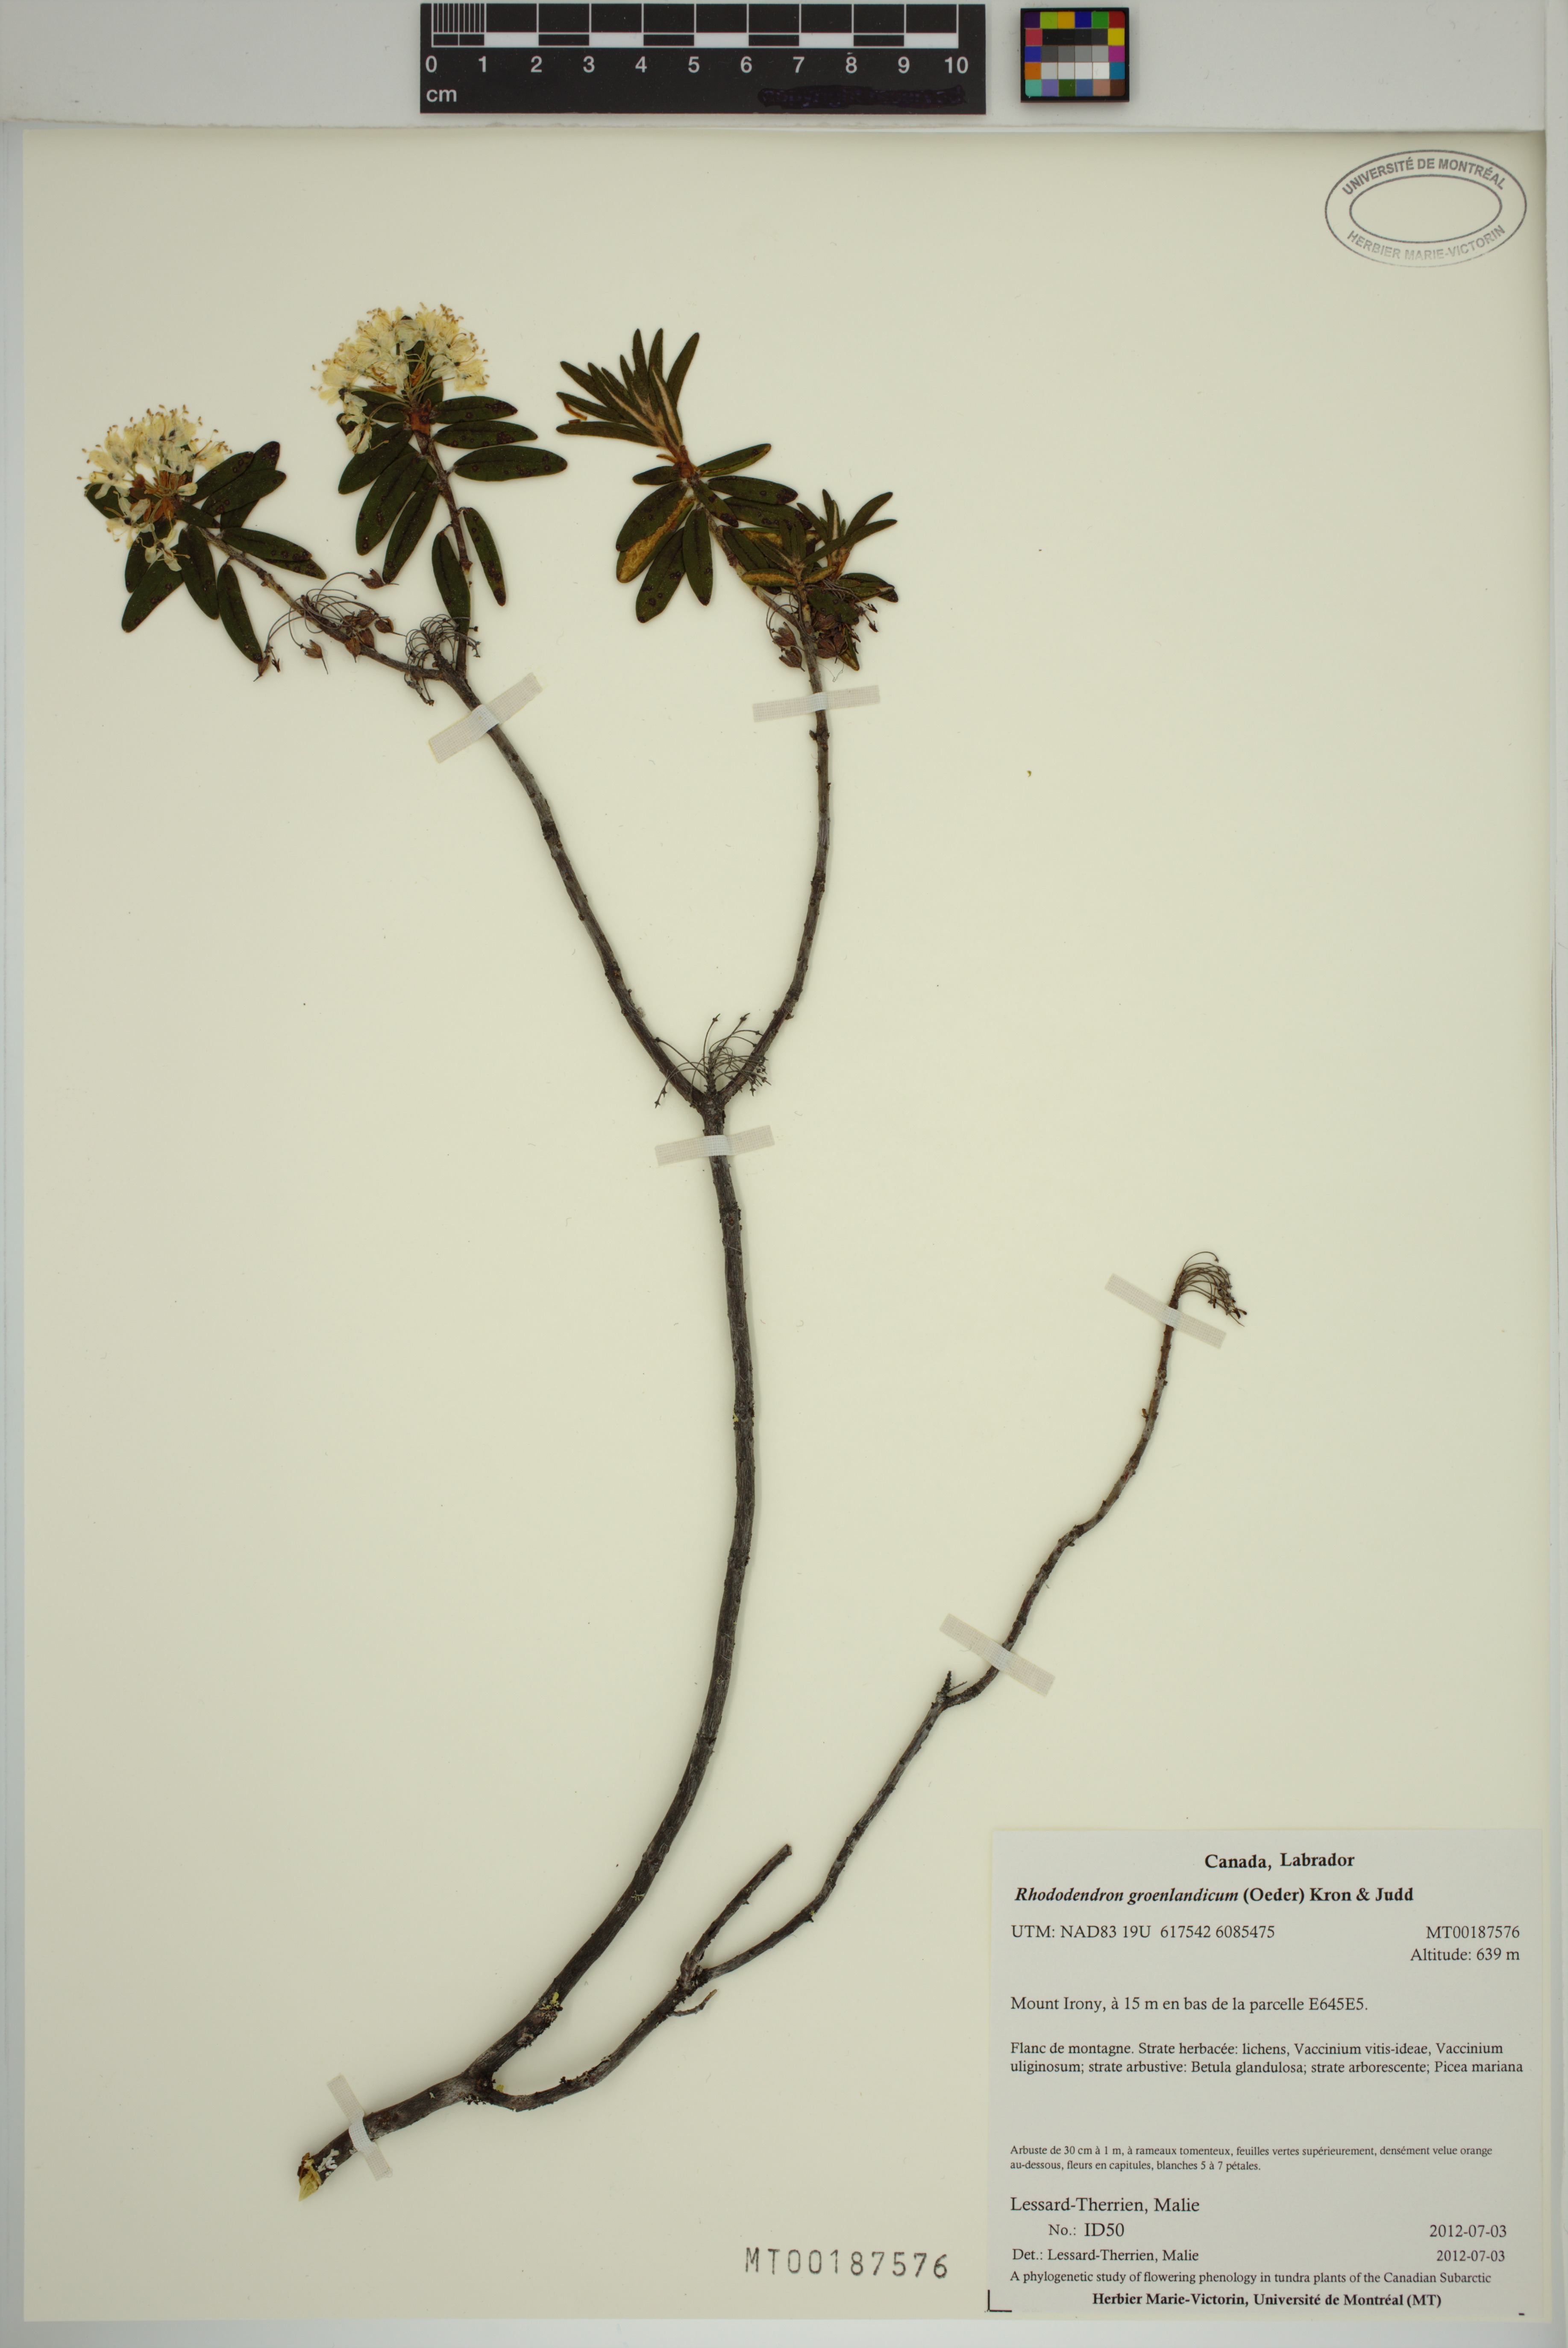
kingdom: Plantae
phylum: Tracheophyta
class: Magnoliopsida
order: Ericales
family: Ericaceae
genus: Rhododendron
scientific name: Rhododendron groenlandicum
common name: Bog labrador tea
